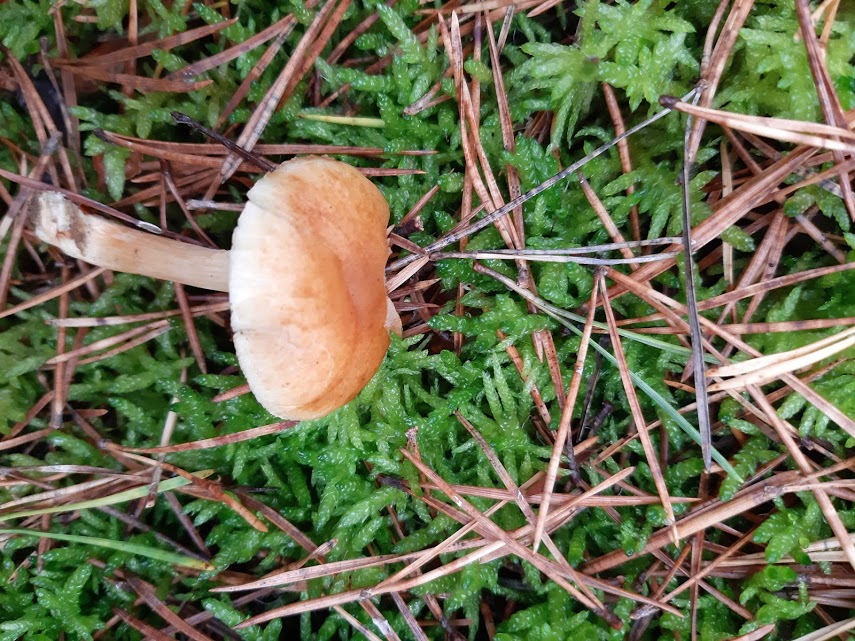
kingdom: Fungi
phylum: Basidiomycota
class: Agaricomycetes
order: Agaricales
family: Hymenogastraceae
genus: Gymnopilus
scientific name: Gymnopilus penetrans
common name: plettet flammehat
